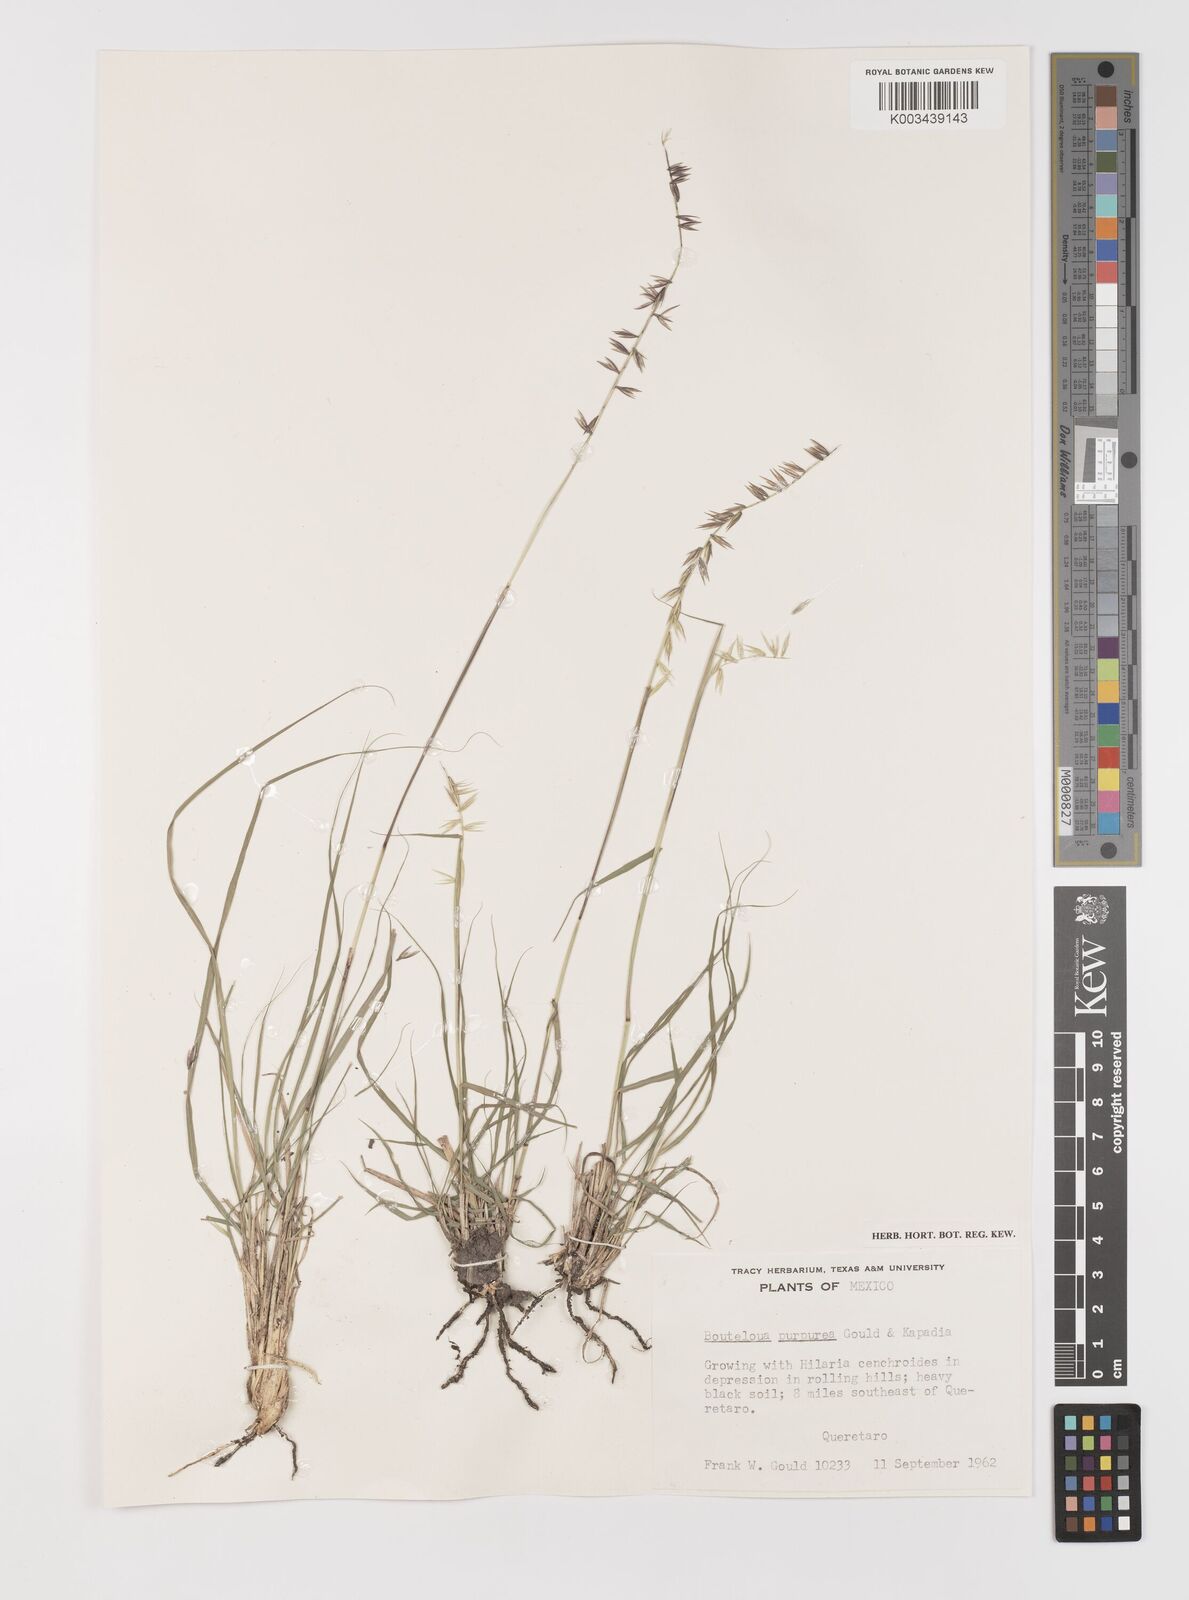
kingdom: Plantae
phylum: Tracheophyta
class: Liliopsida
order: Poales
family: Poaceae
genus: Bouteloua
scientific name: Bouteloua purpurea
